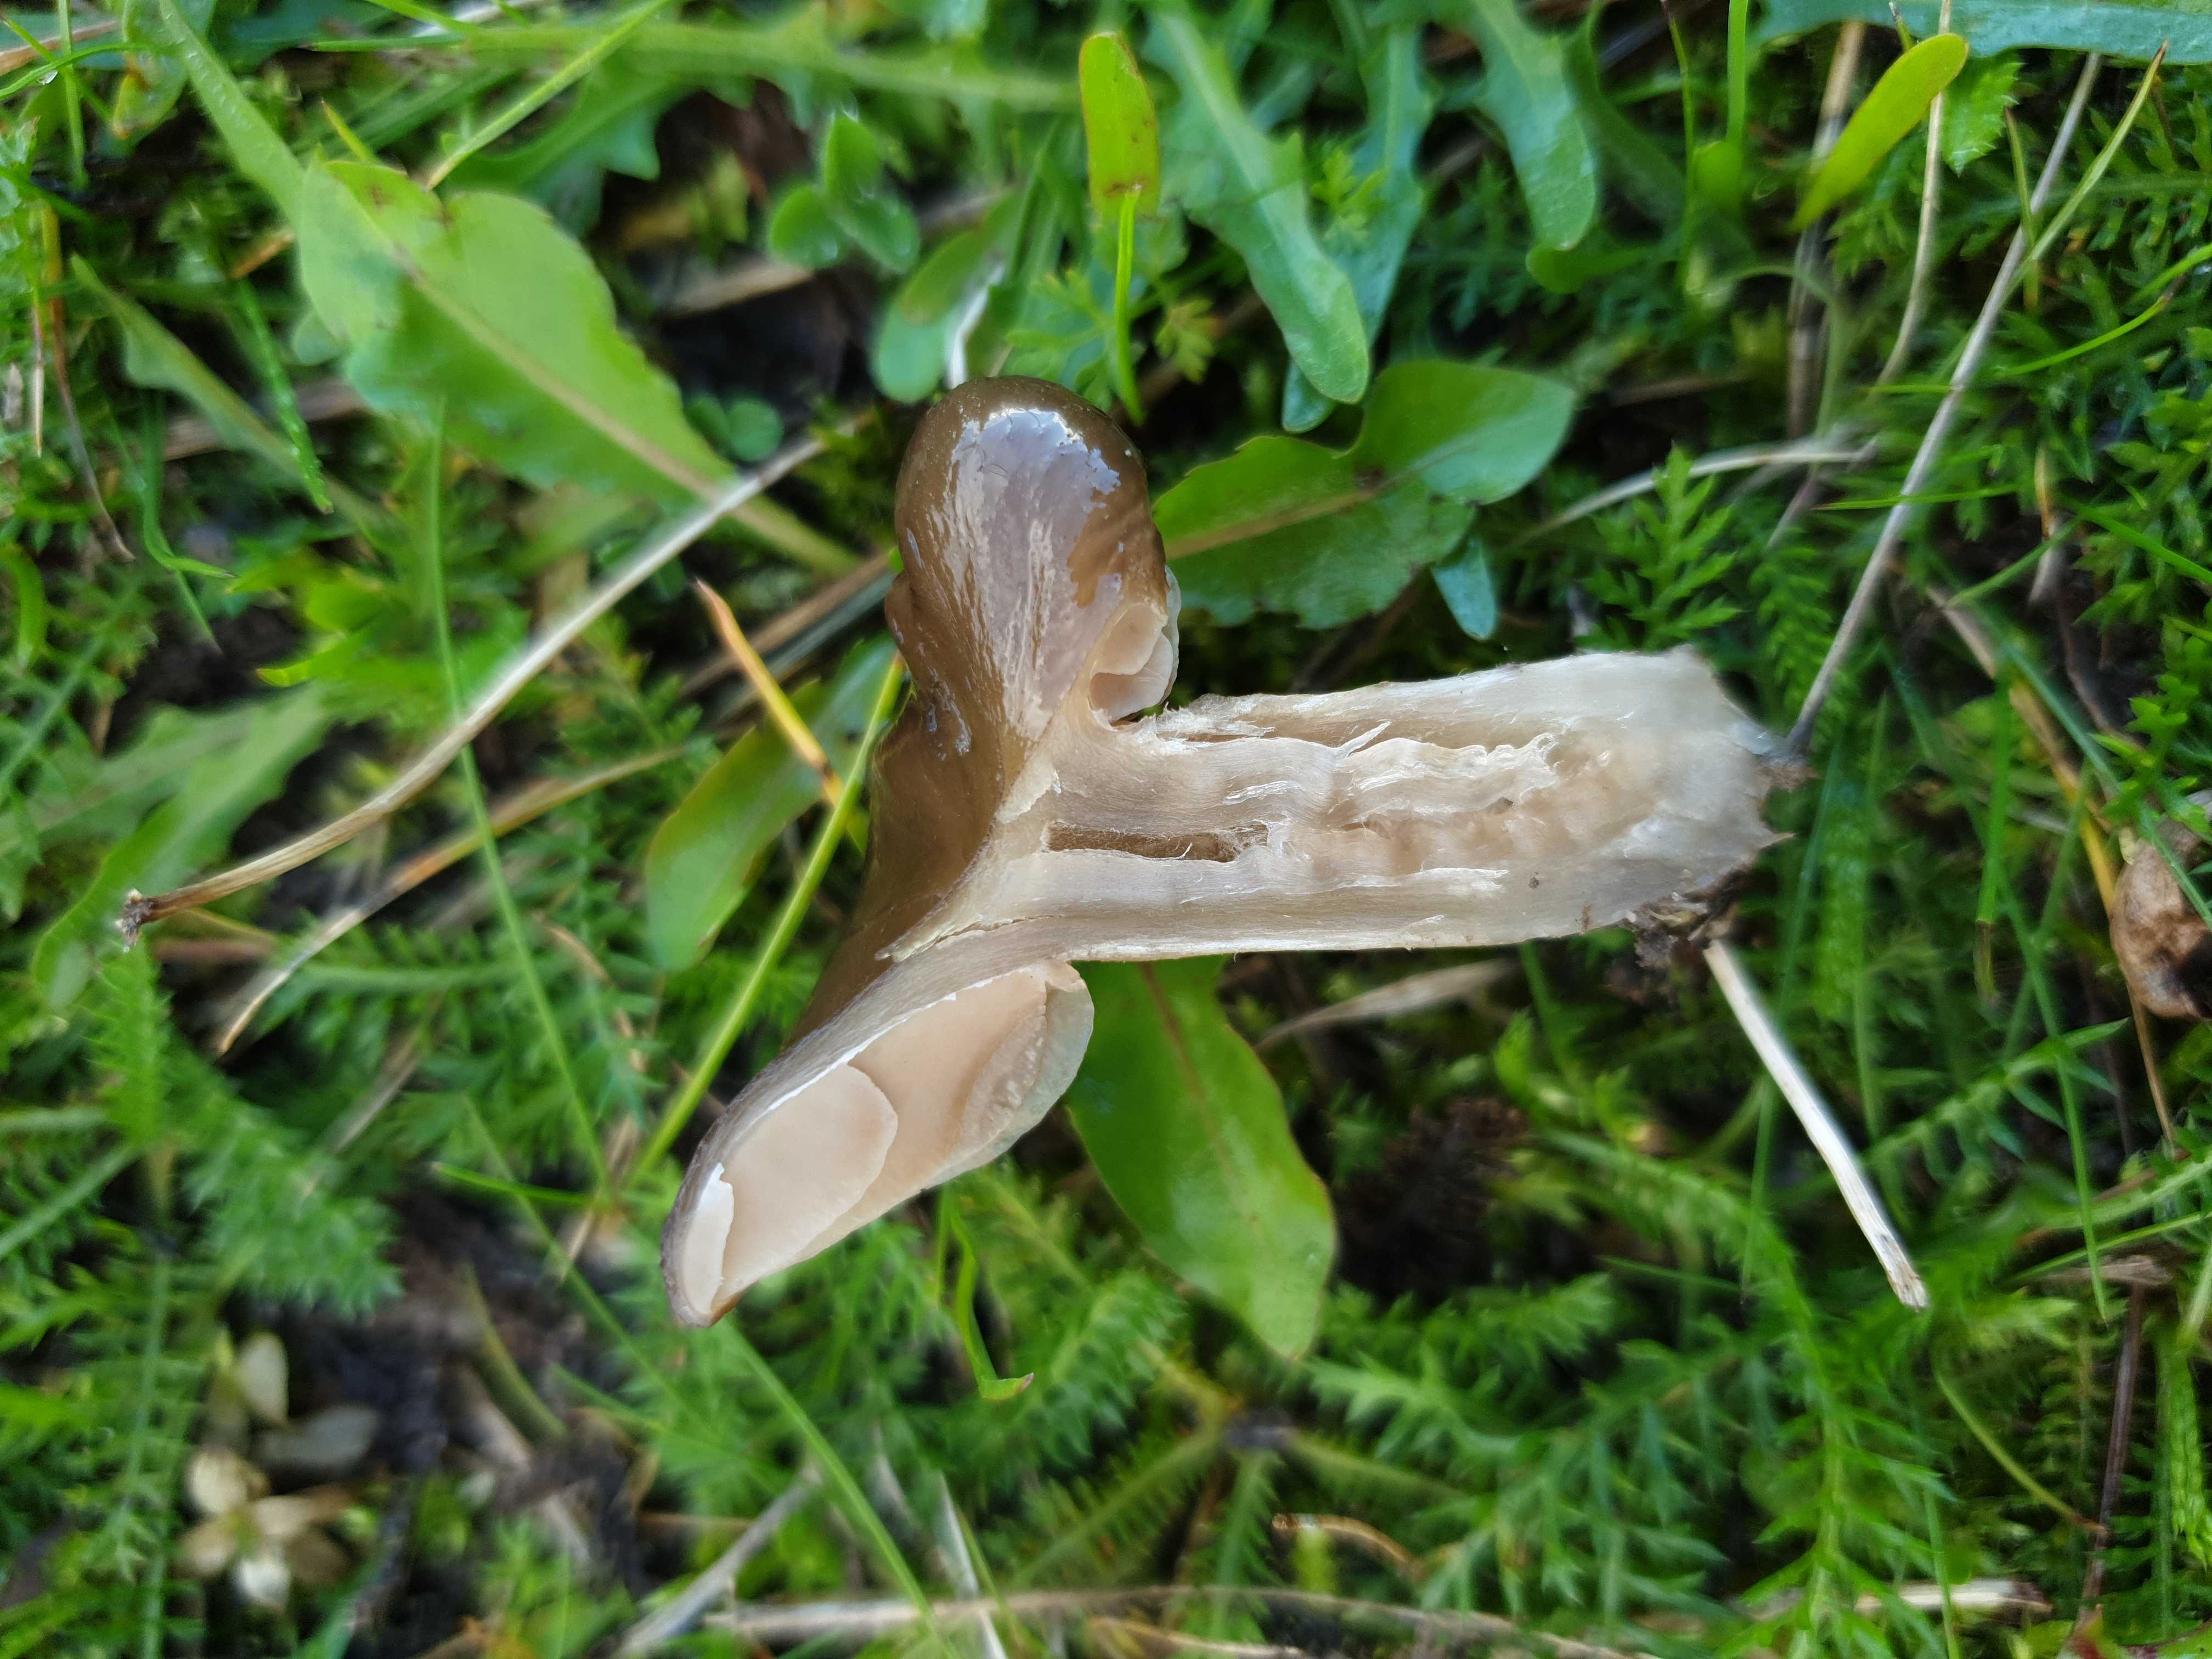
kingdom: Fungi
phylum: Basidiomycota
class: Agaricomycetes
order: Agaricales
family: Entolomataceae
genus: Entoloma
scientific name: Entoloma
